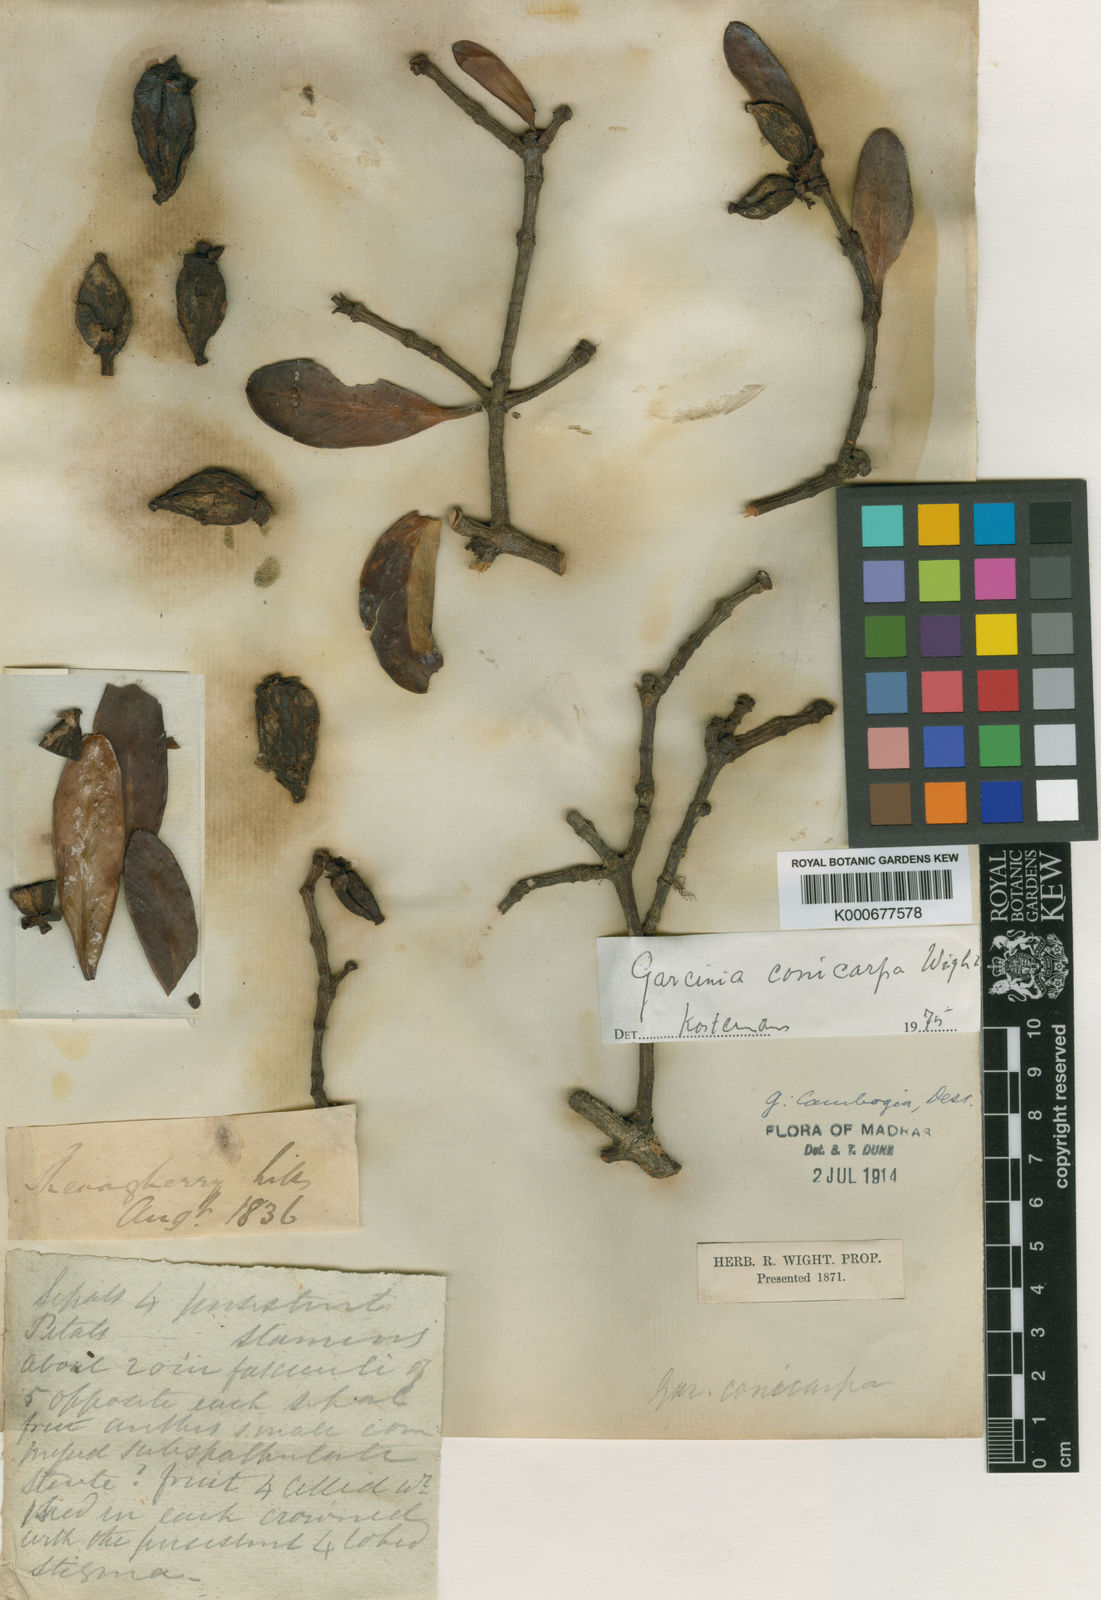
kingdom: Plantae
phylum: Tracheophyta
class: Magnoliopsida
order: Malpighiales
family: Clusiaceae
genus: Garcinia
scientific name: Garcinia gummi-gutta
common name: Malabar tamarind
